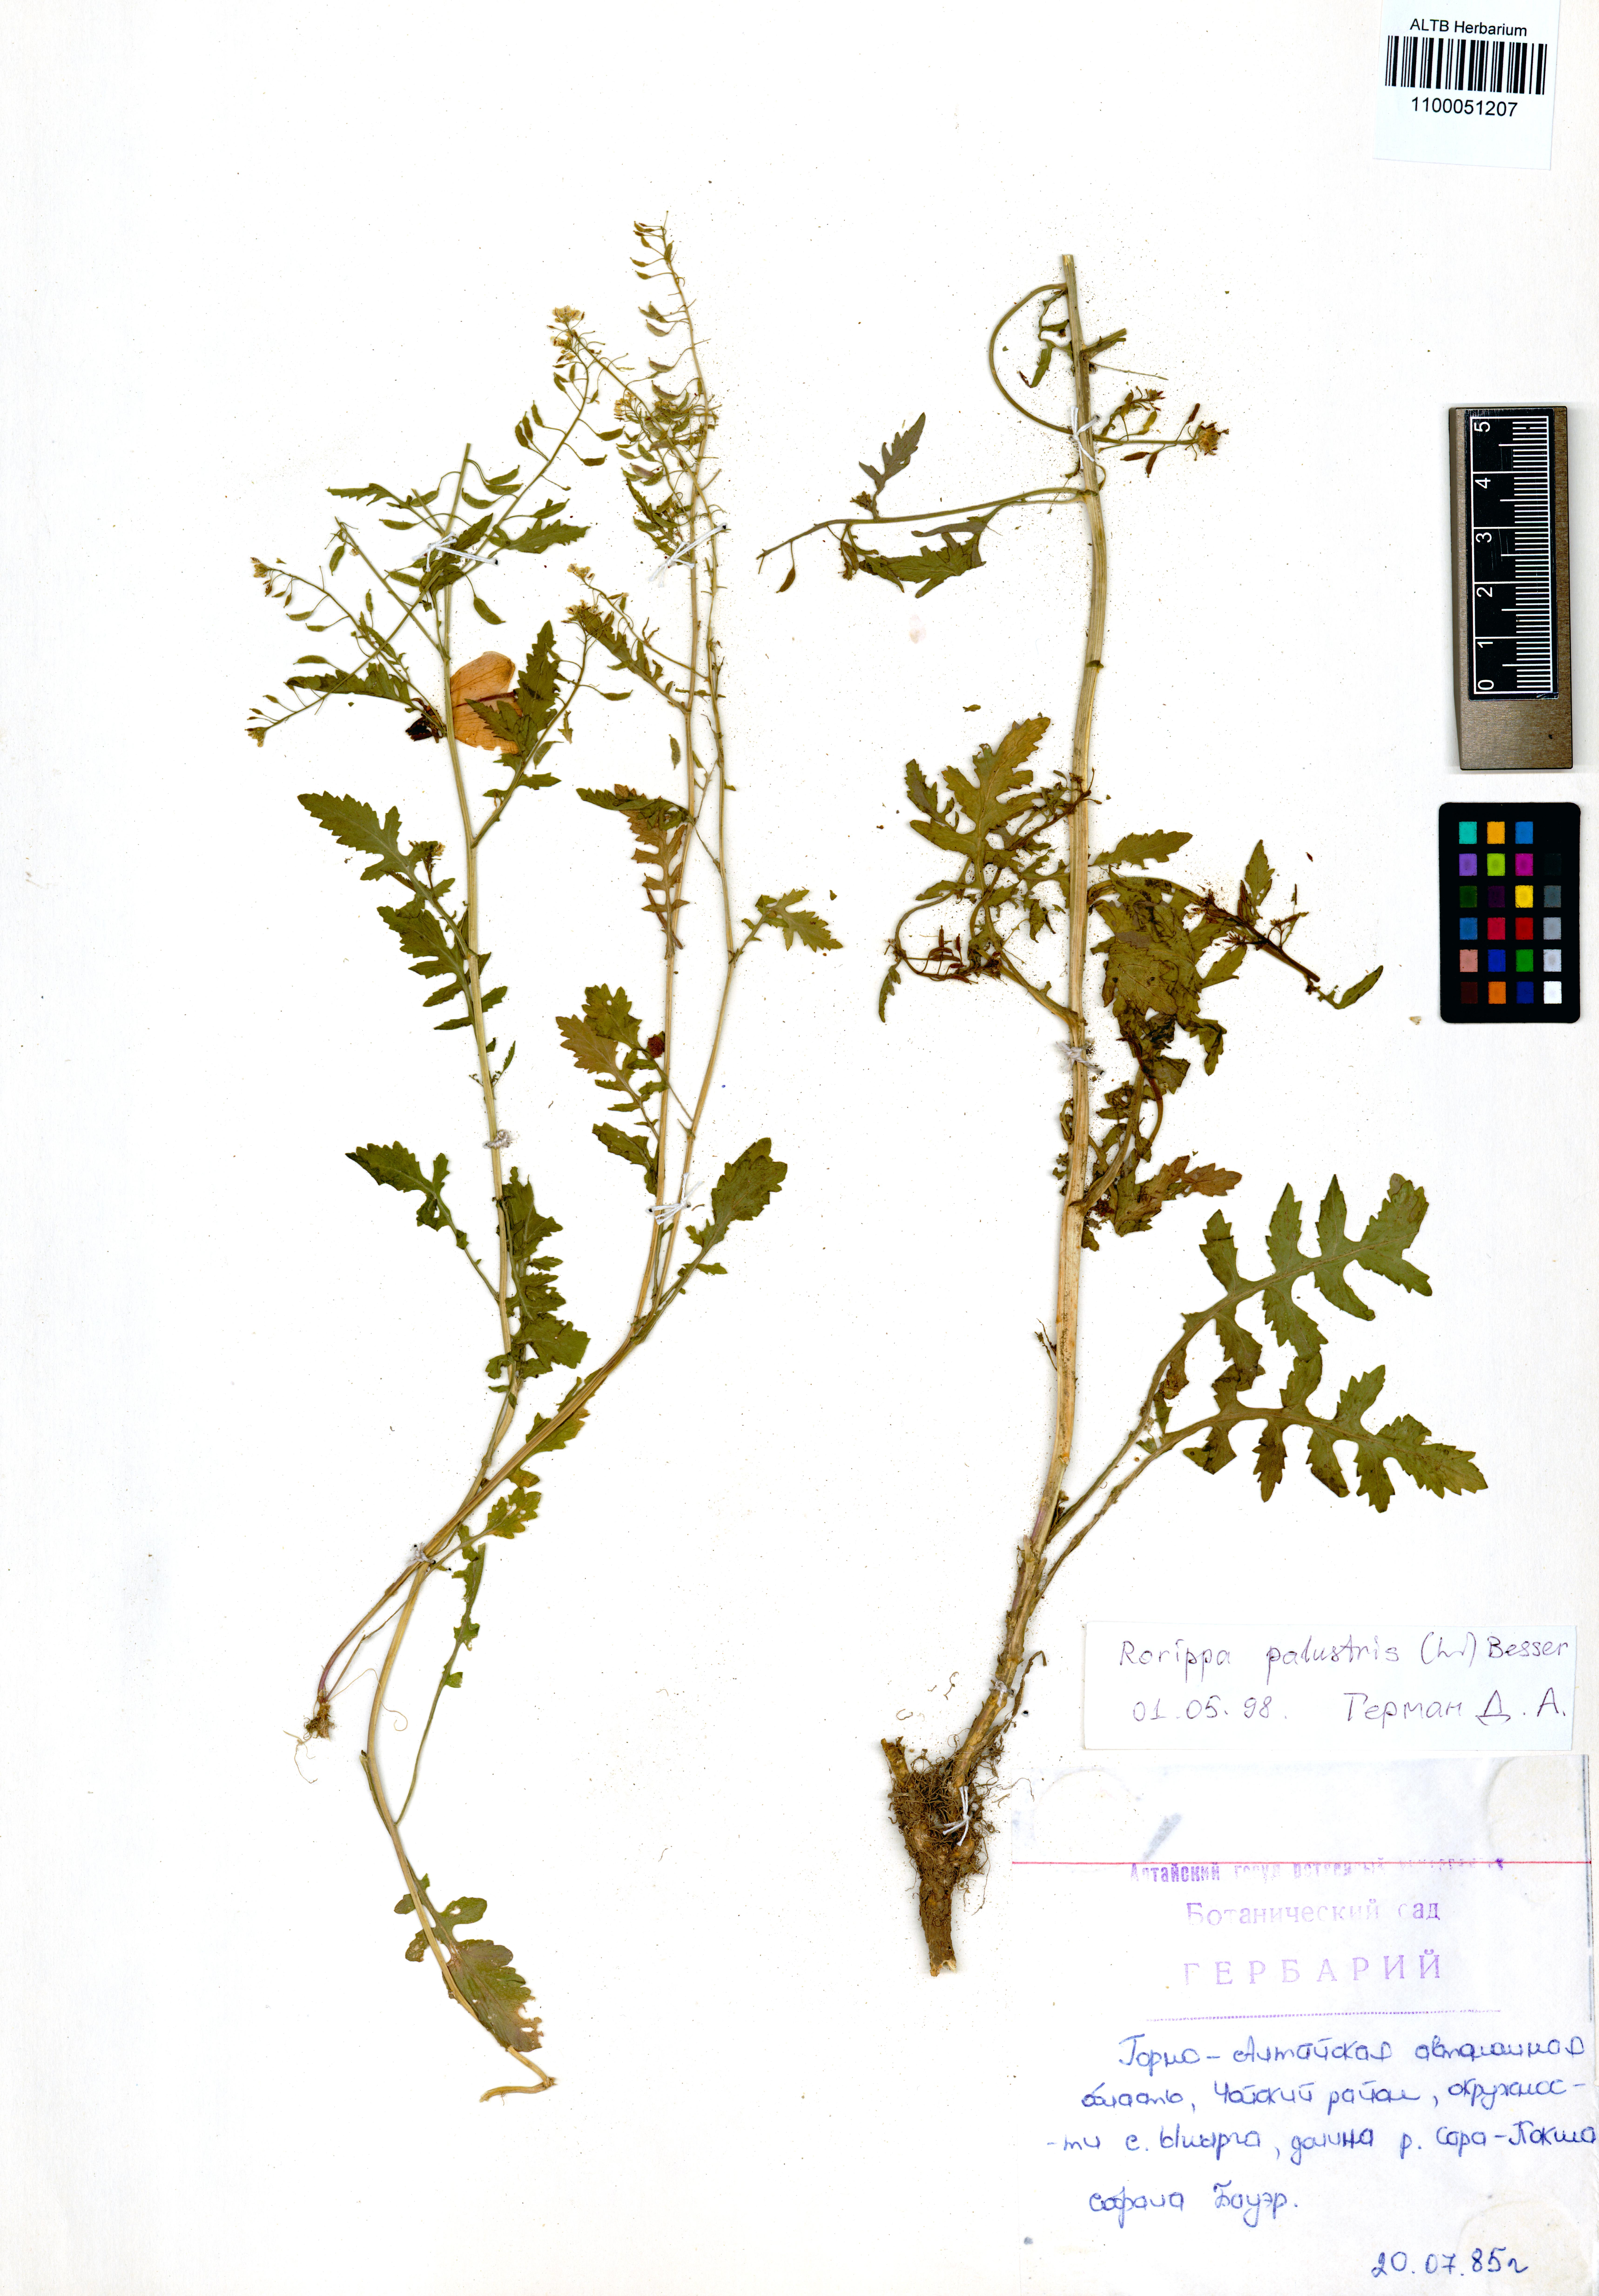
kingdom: Plantae
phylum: Tracheophyta
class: Magnoliopsida
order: Brassicales
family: Brassicaceae
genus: Rorippa
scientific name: Rorippa palustris
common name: Marsh yellow-cress
